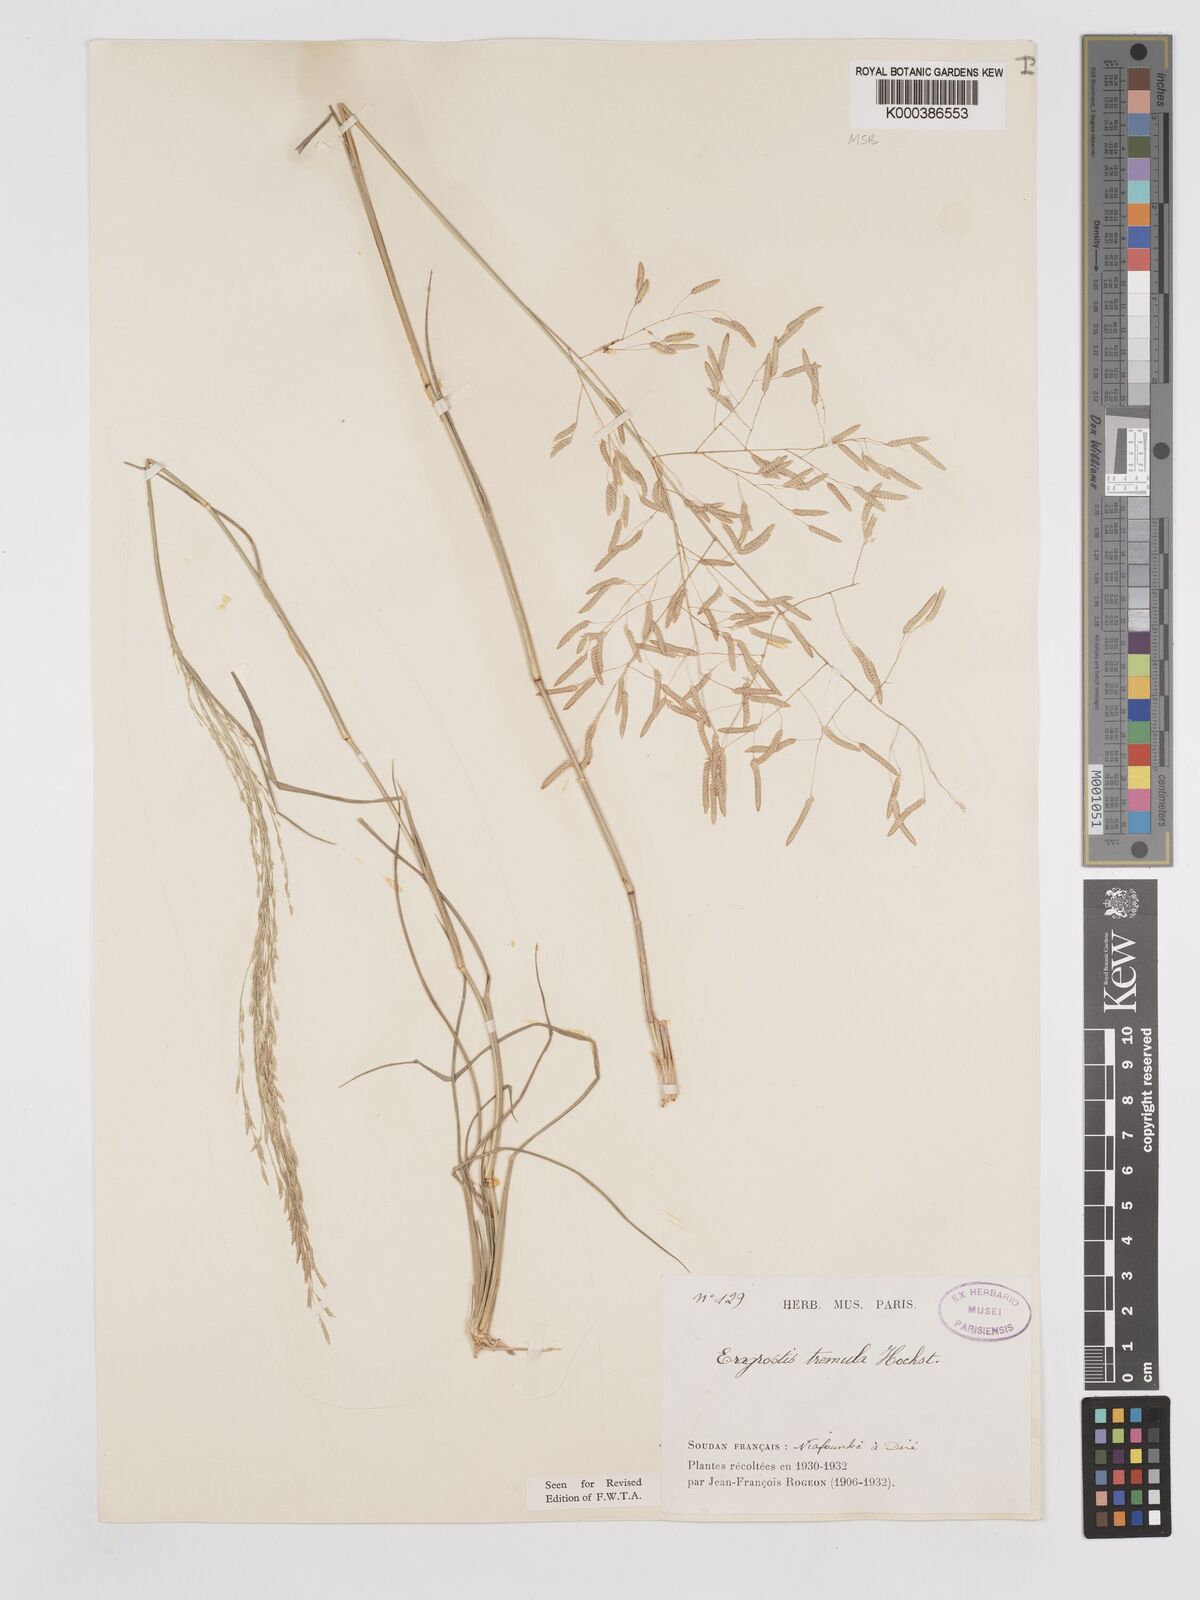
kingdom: Plantae
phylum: Tracheophyta
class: Liliopsida
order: Poales
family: Poaceae
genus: Eragrostis
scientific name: Eragrostis tremula
